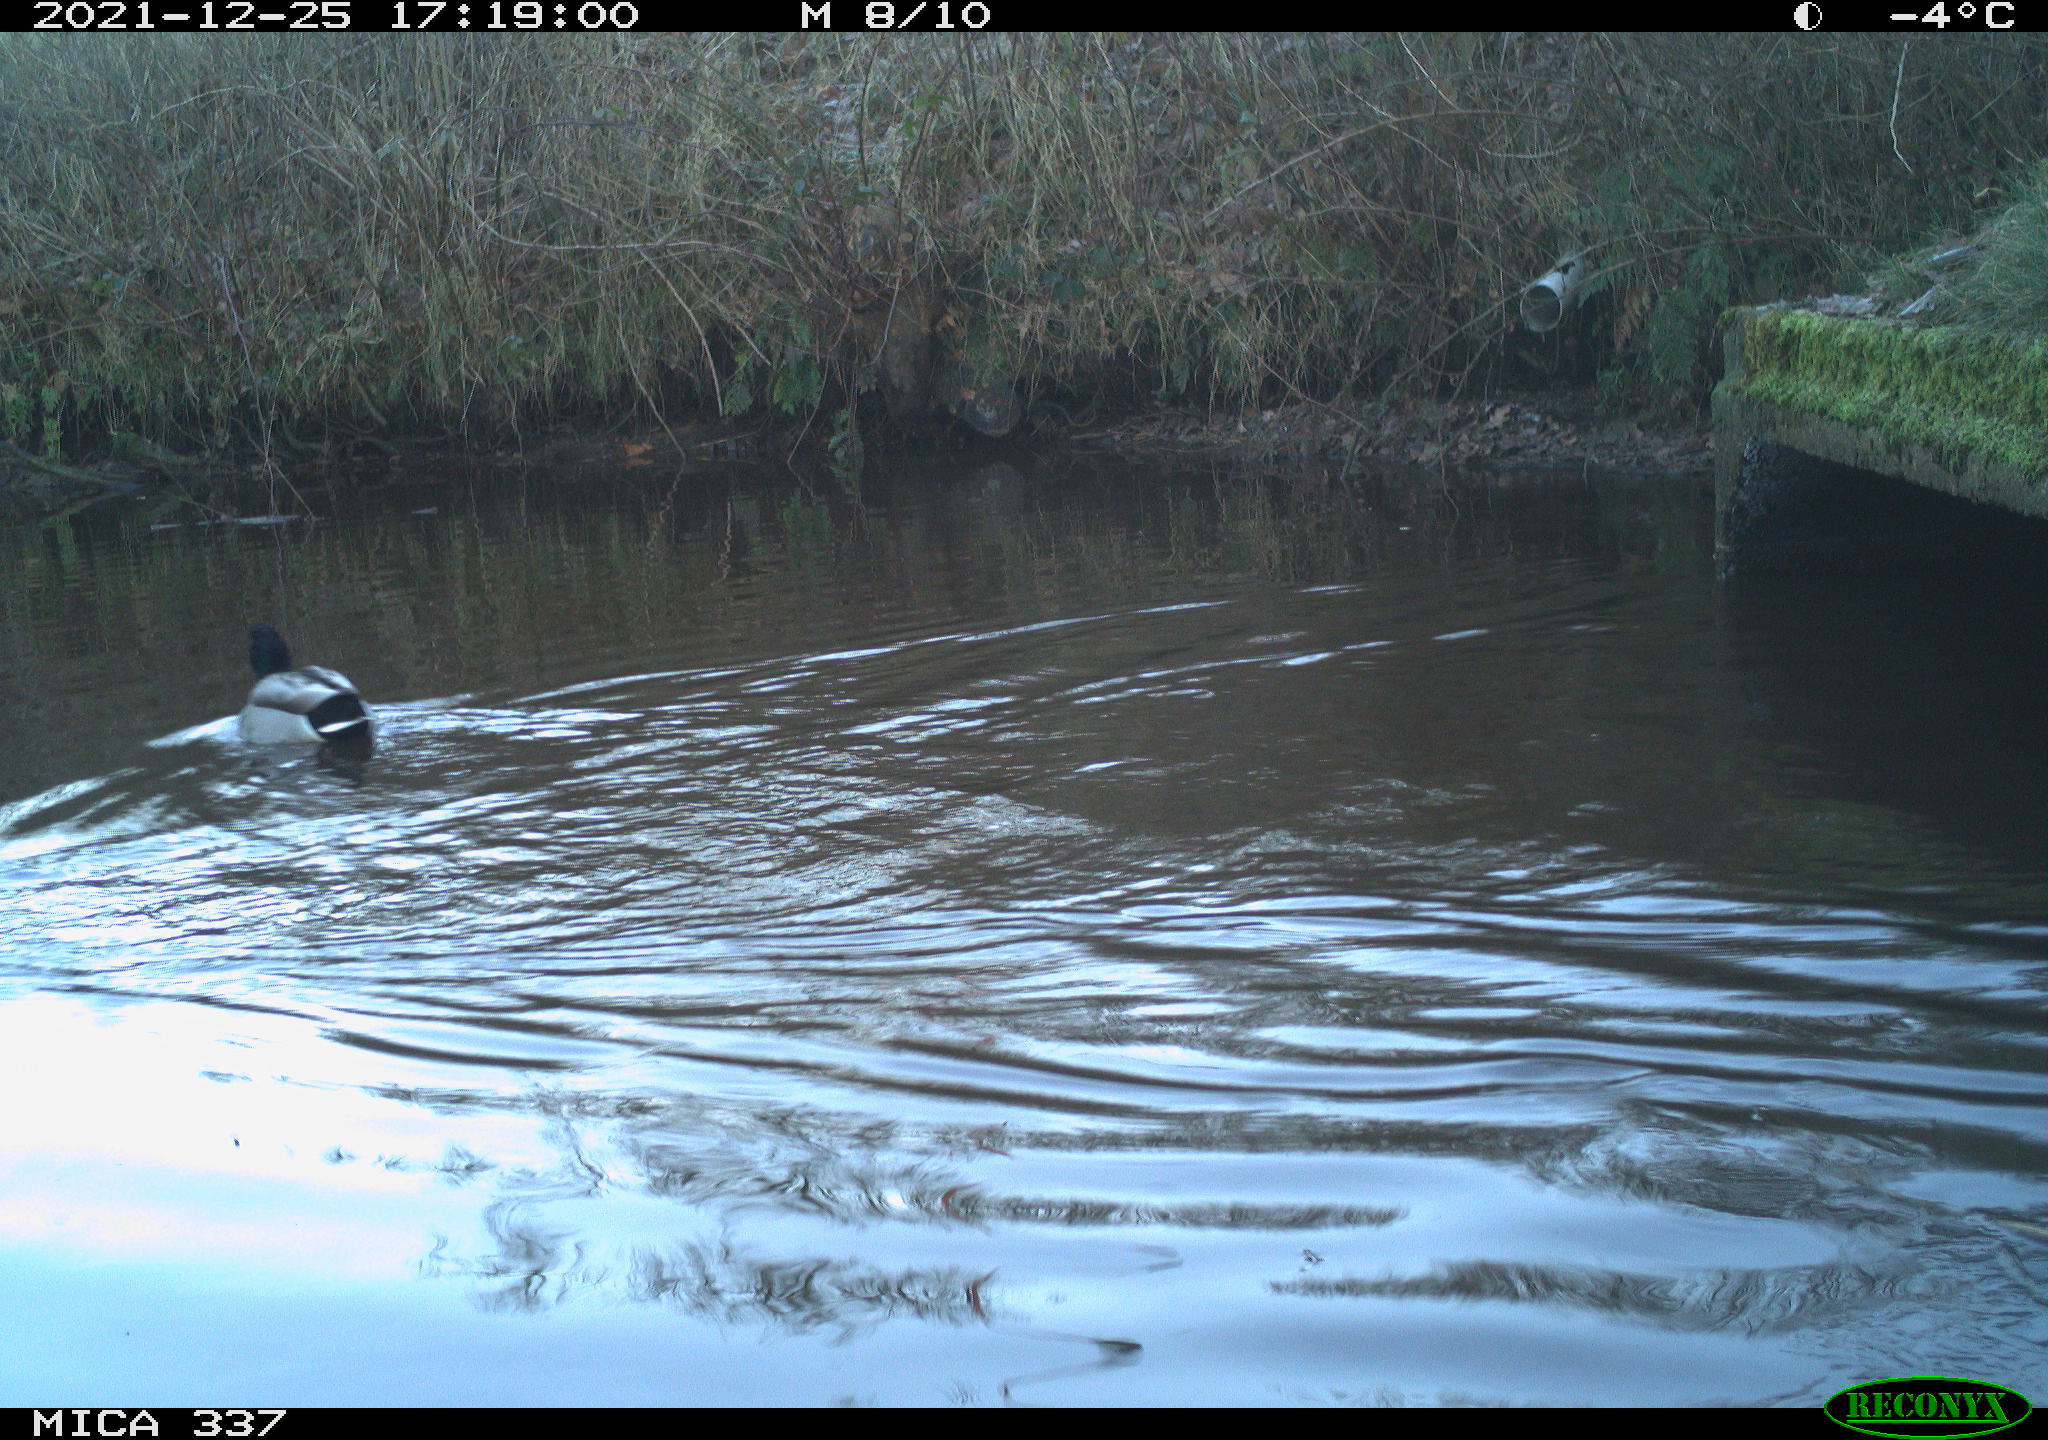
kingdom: Animalia
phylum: Chordata
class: Aves
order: Anseriformes
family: Anatidae
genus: Anas
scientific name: Anas platyrhynchos
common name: Mallard
